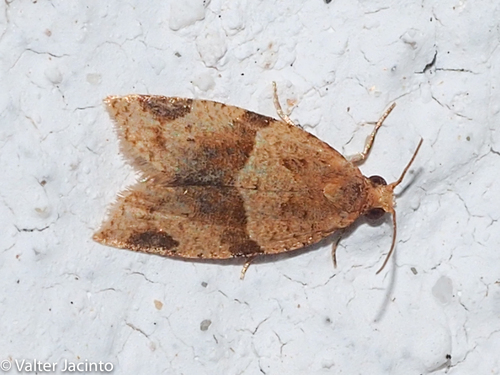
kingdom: Animalia
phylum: Arthropoda
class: Insecta
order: Lepidoptera
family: Tortricidae
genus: Clepsis
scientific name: Clepsis peritana
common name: Garden tortrix
